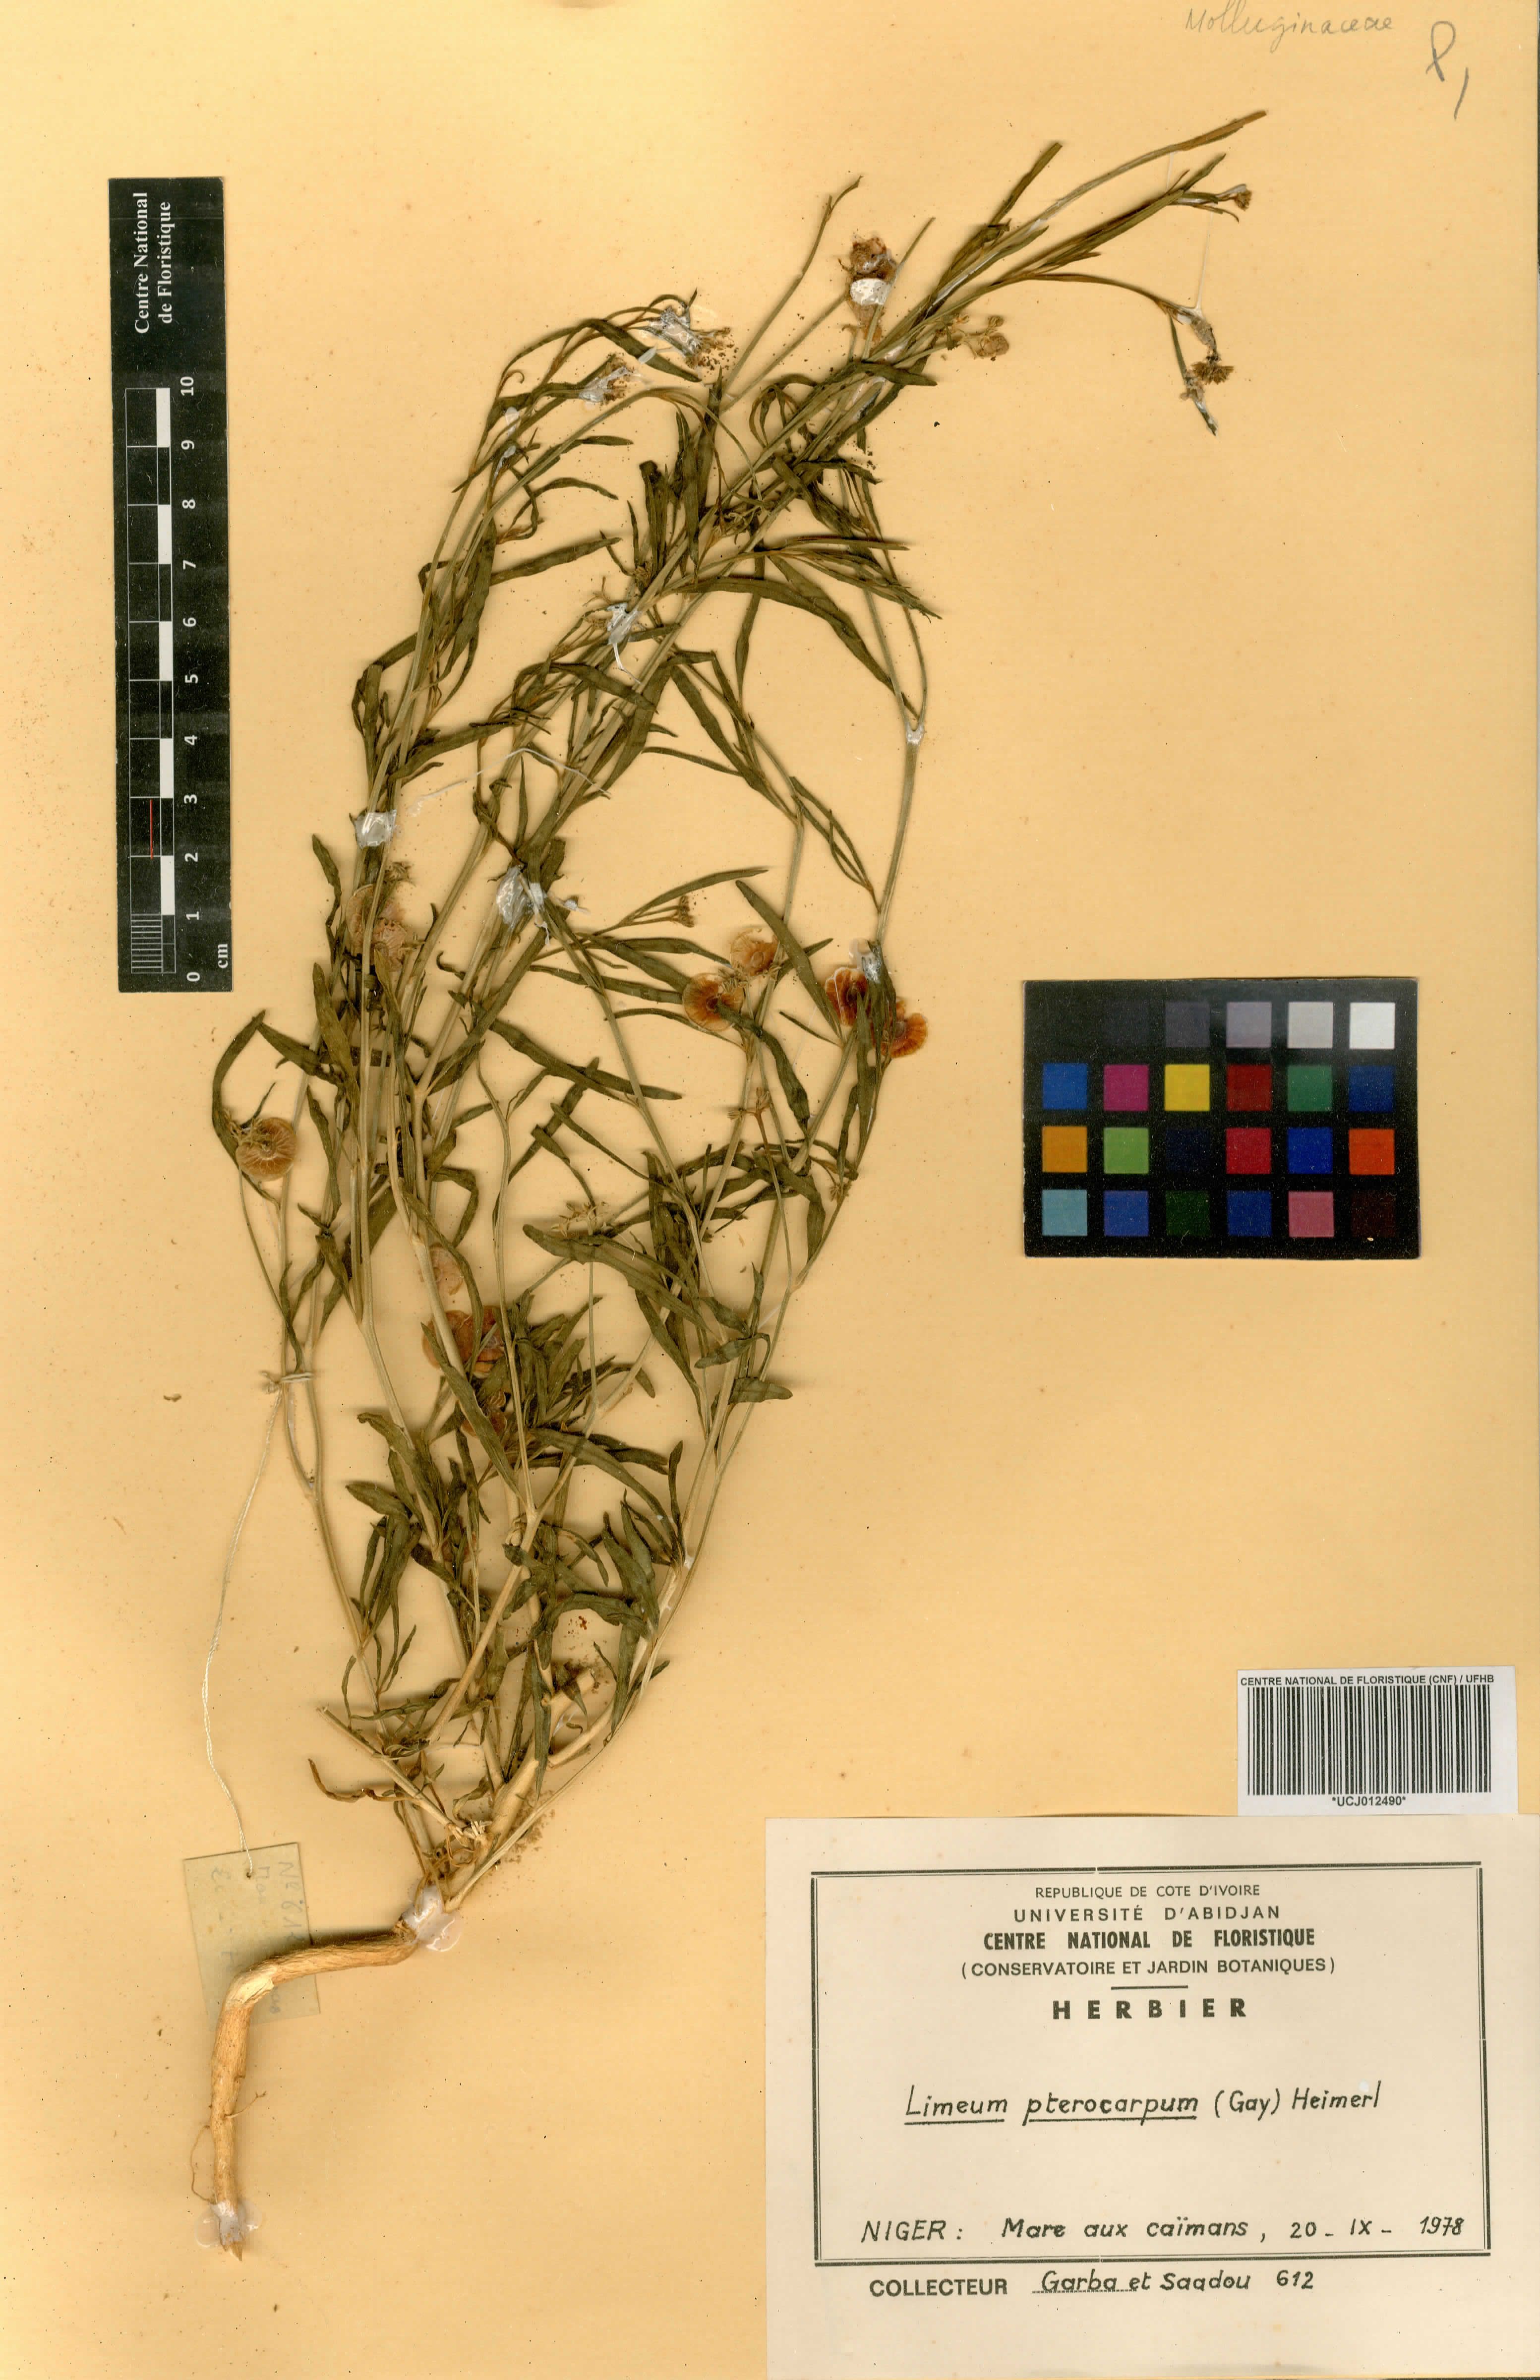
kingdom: Plantae
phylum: Tracheophyta
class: Magnoliopsida
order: Caryophyllales
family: Limeaceae
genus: Limeum
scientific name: Limeum pterocarpum
